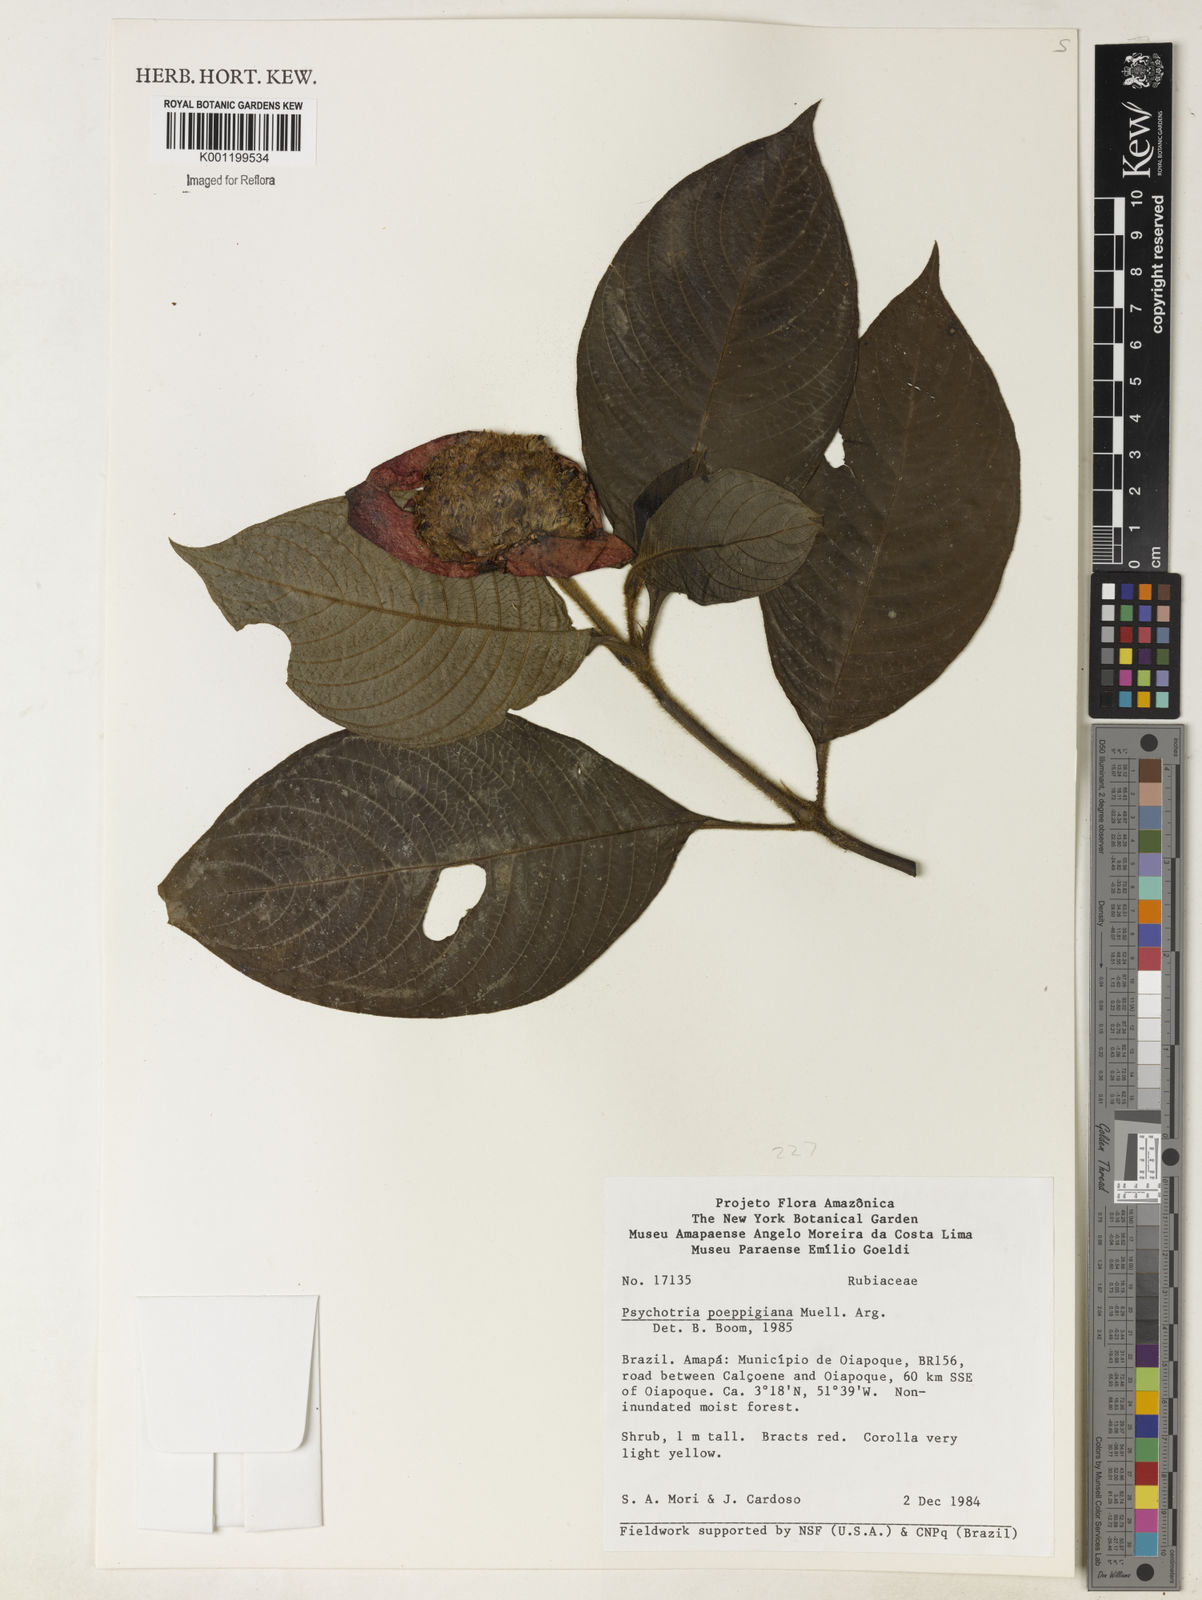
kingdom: Plantae
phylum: Tracheophyta
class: Magnoliopsida
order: Gentianales
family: Rubiaceae
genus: Psychotria
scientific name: Psychotria
